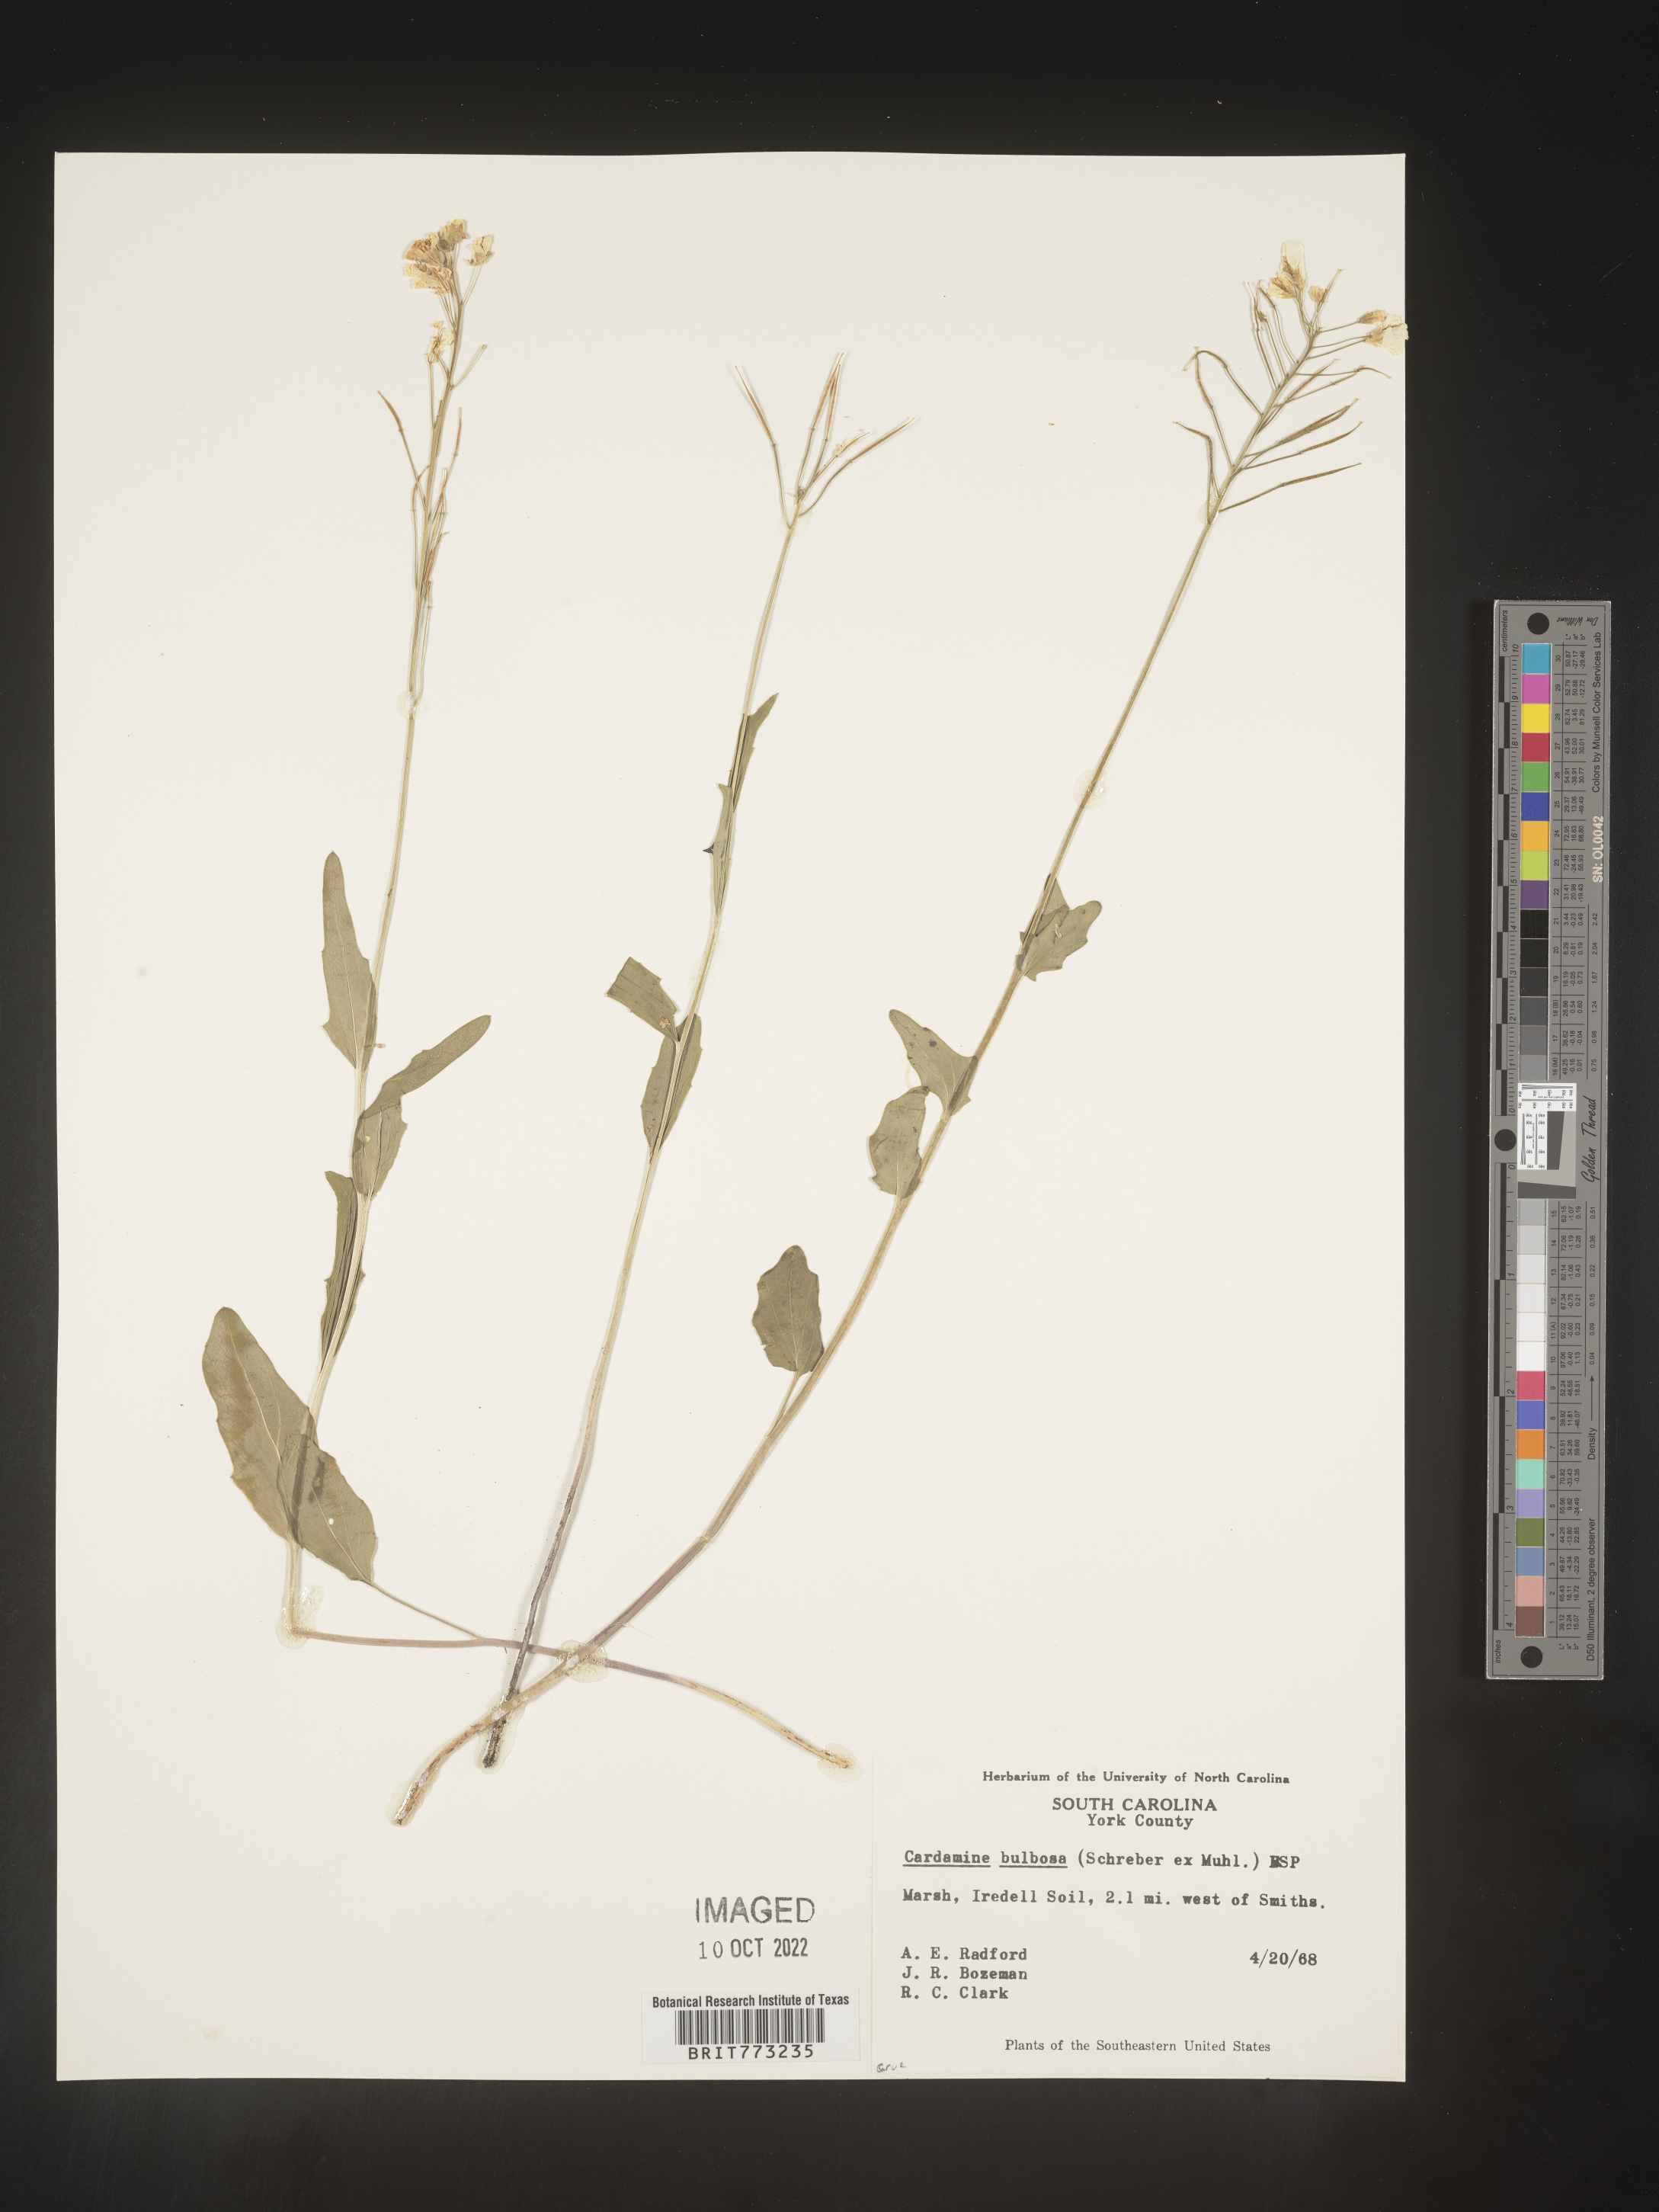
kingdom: Plantae
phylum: Tracheophyta
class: Magnoliopsida
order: Brassicales
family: Brassicaceae
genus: Cardamine
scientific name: Cardamine bulbosa
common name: Spring cress
